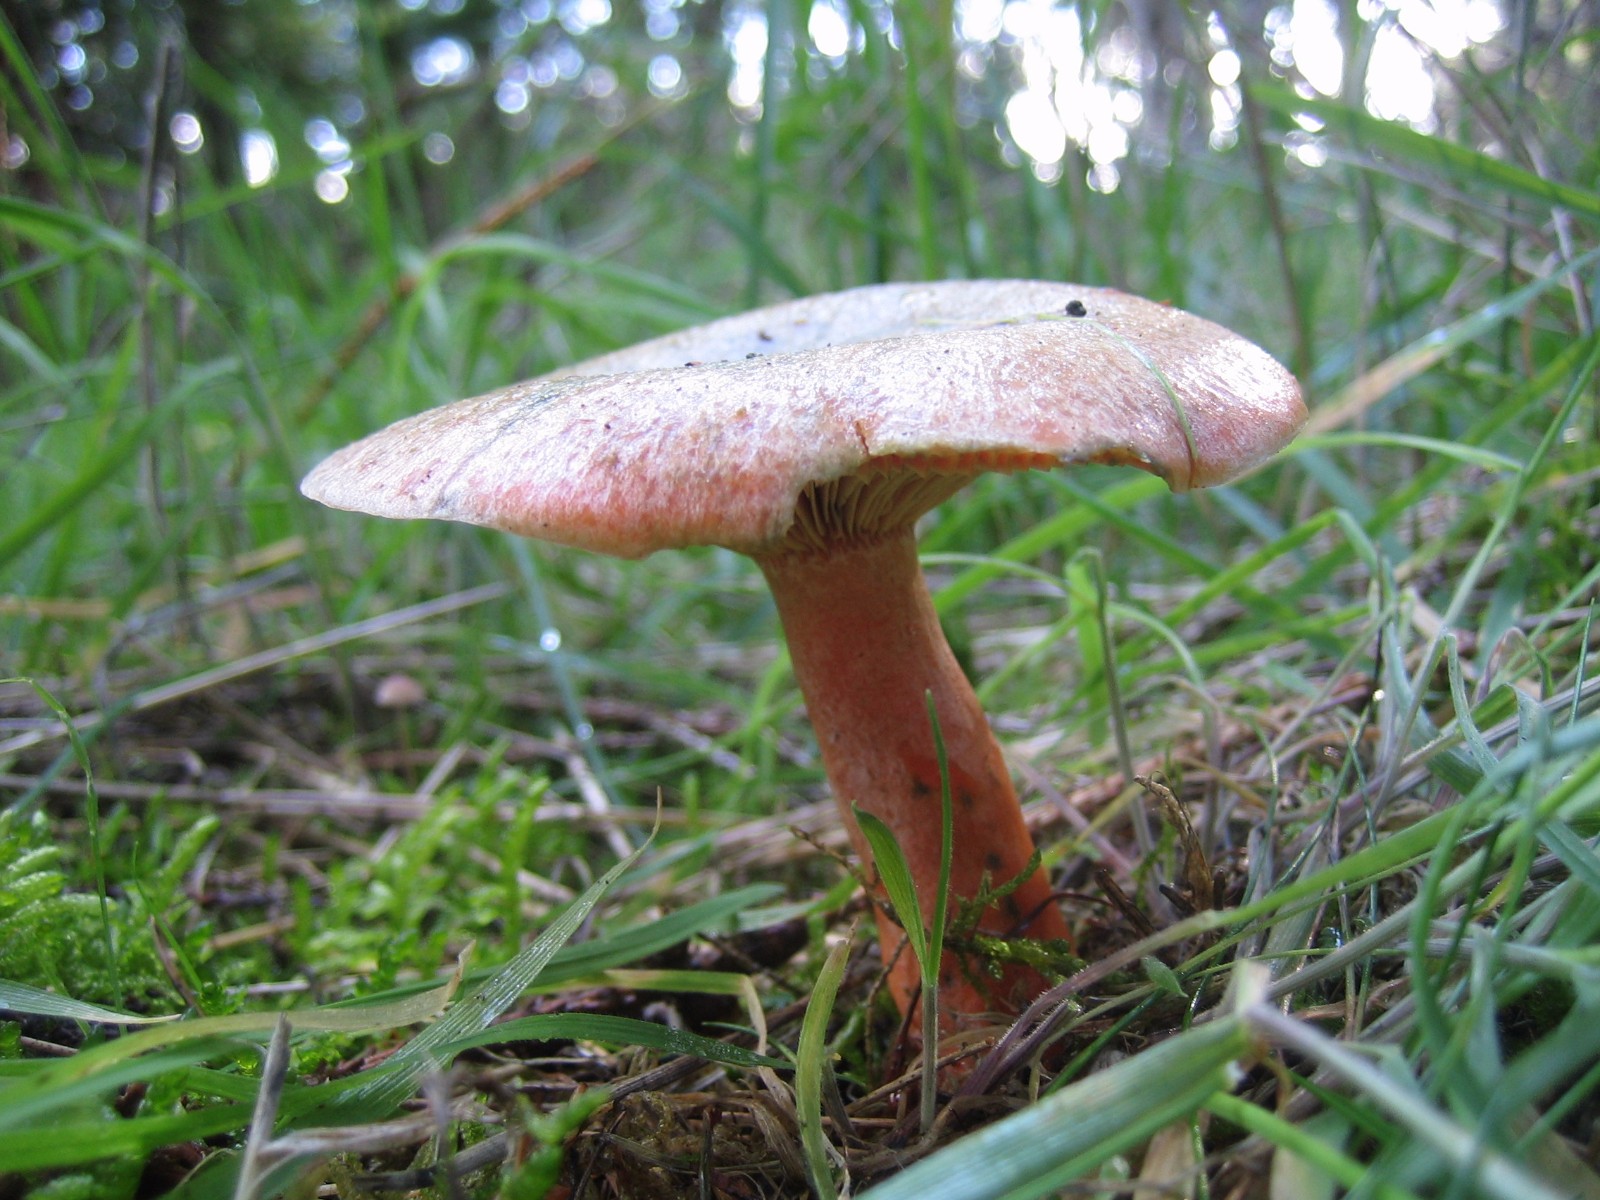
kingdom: Fungi
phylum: Basidiomycota
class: Agaricomycetes
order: Russulales
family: Russulaceae
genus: Lactarius
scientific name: Lactarius deterrimus
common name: gran-mælkehat
